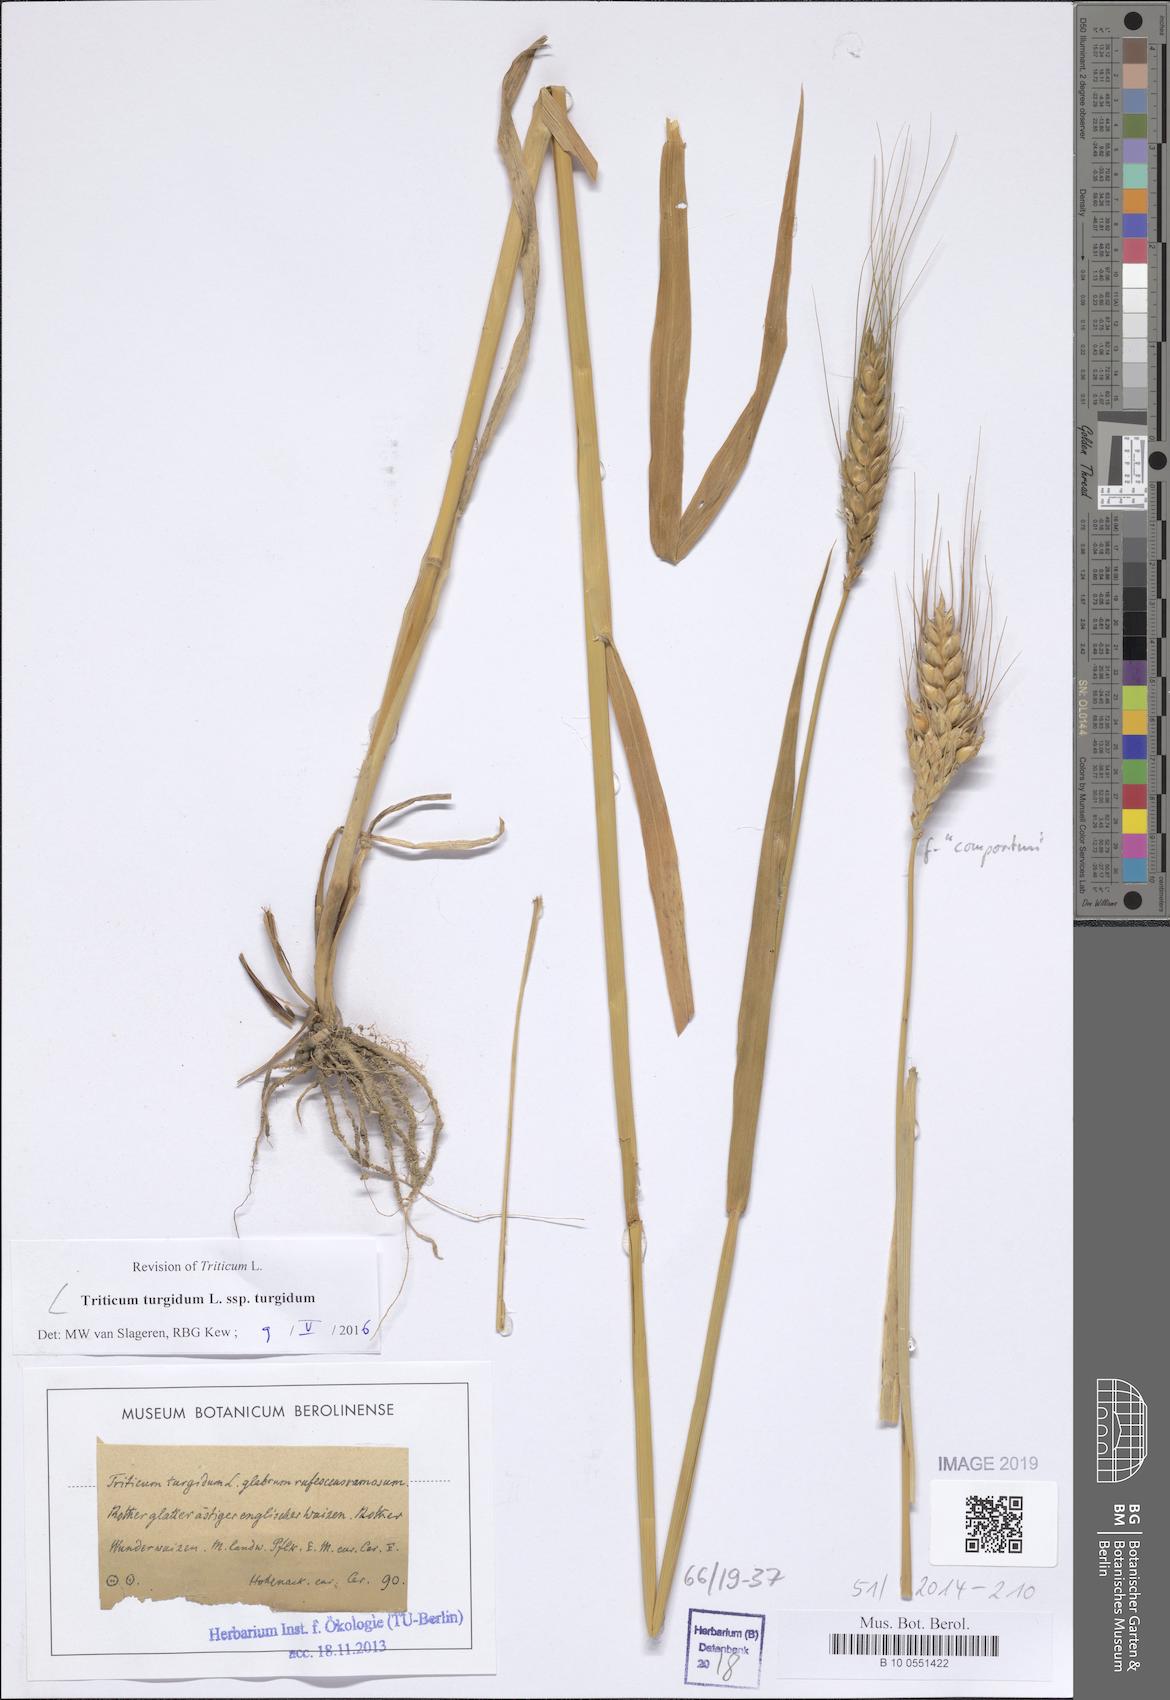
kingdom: Plantae
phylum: Tracheophyta
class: Liliopsida
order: Poales
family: Poaceae
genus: Triticum
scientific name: Triticum turgidum
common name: Rivet wheat
